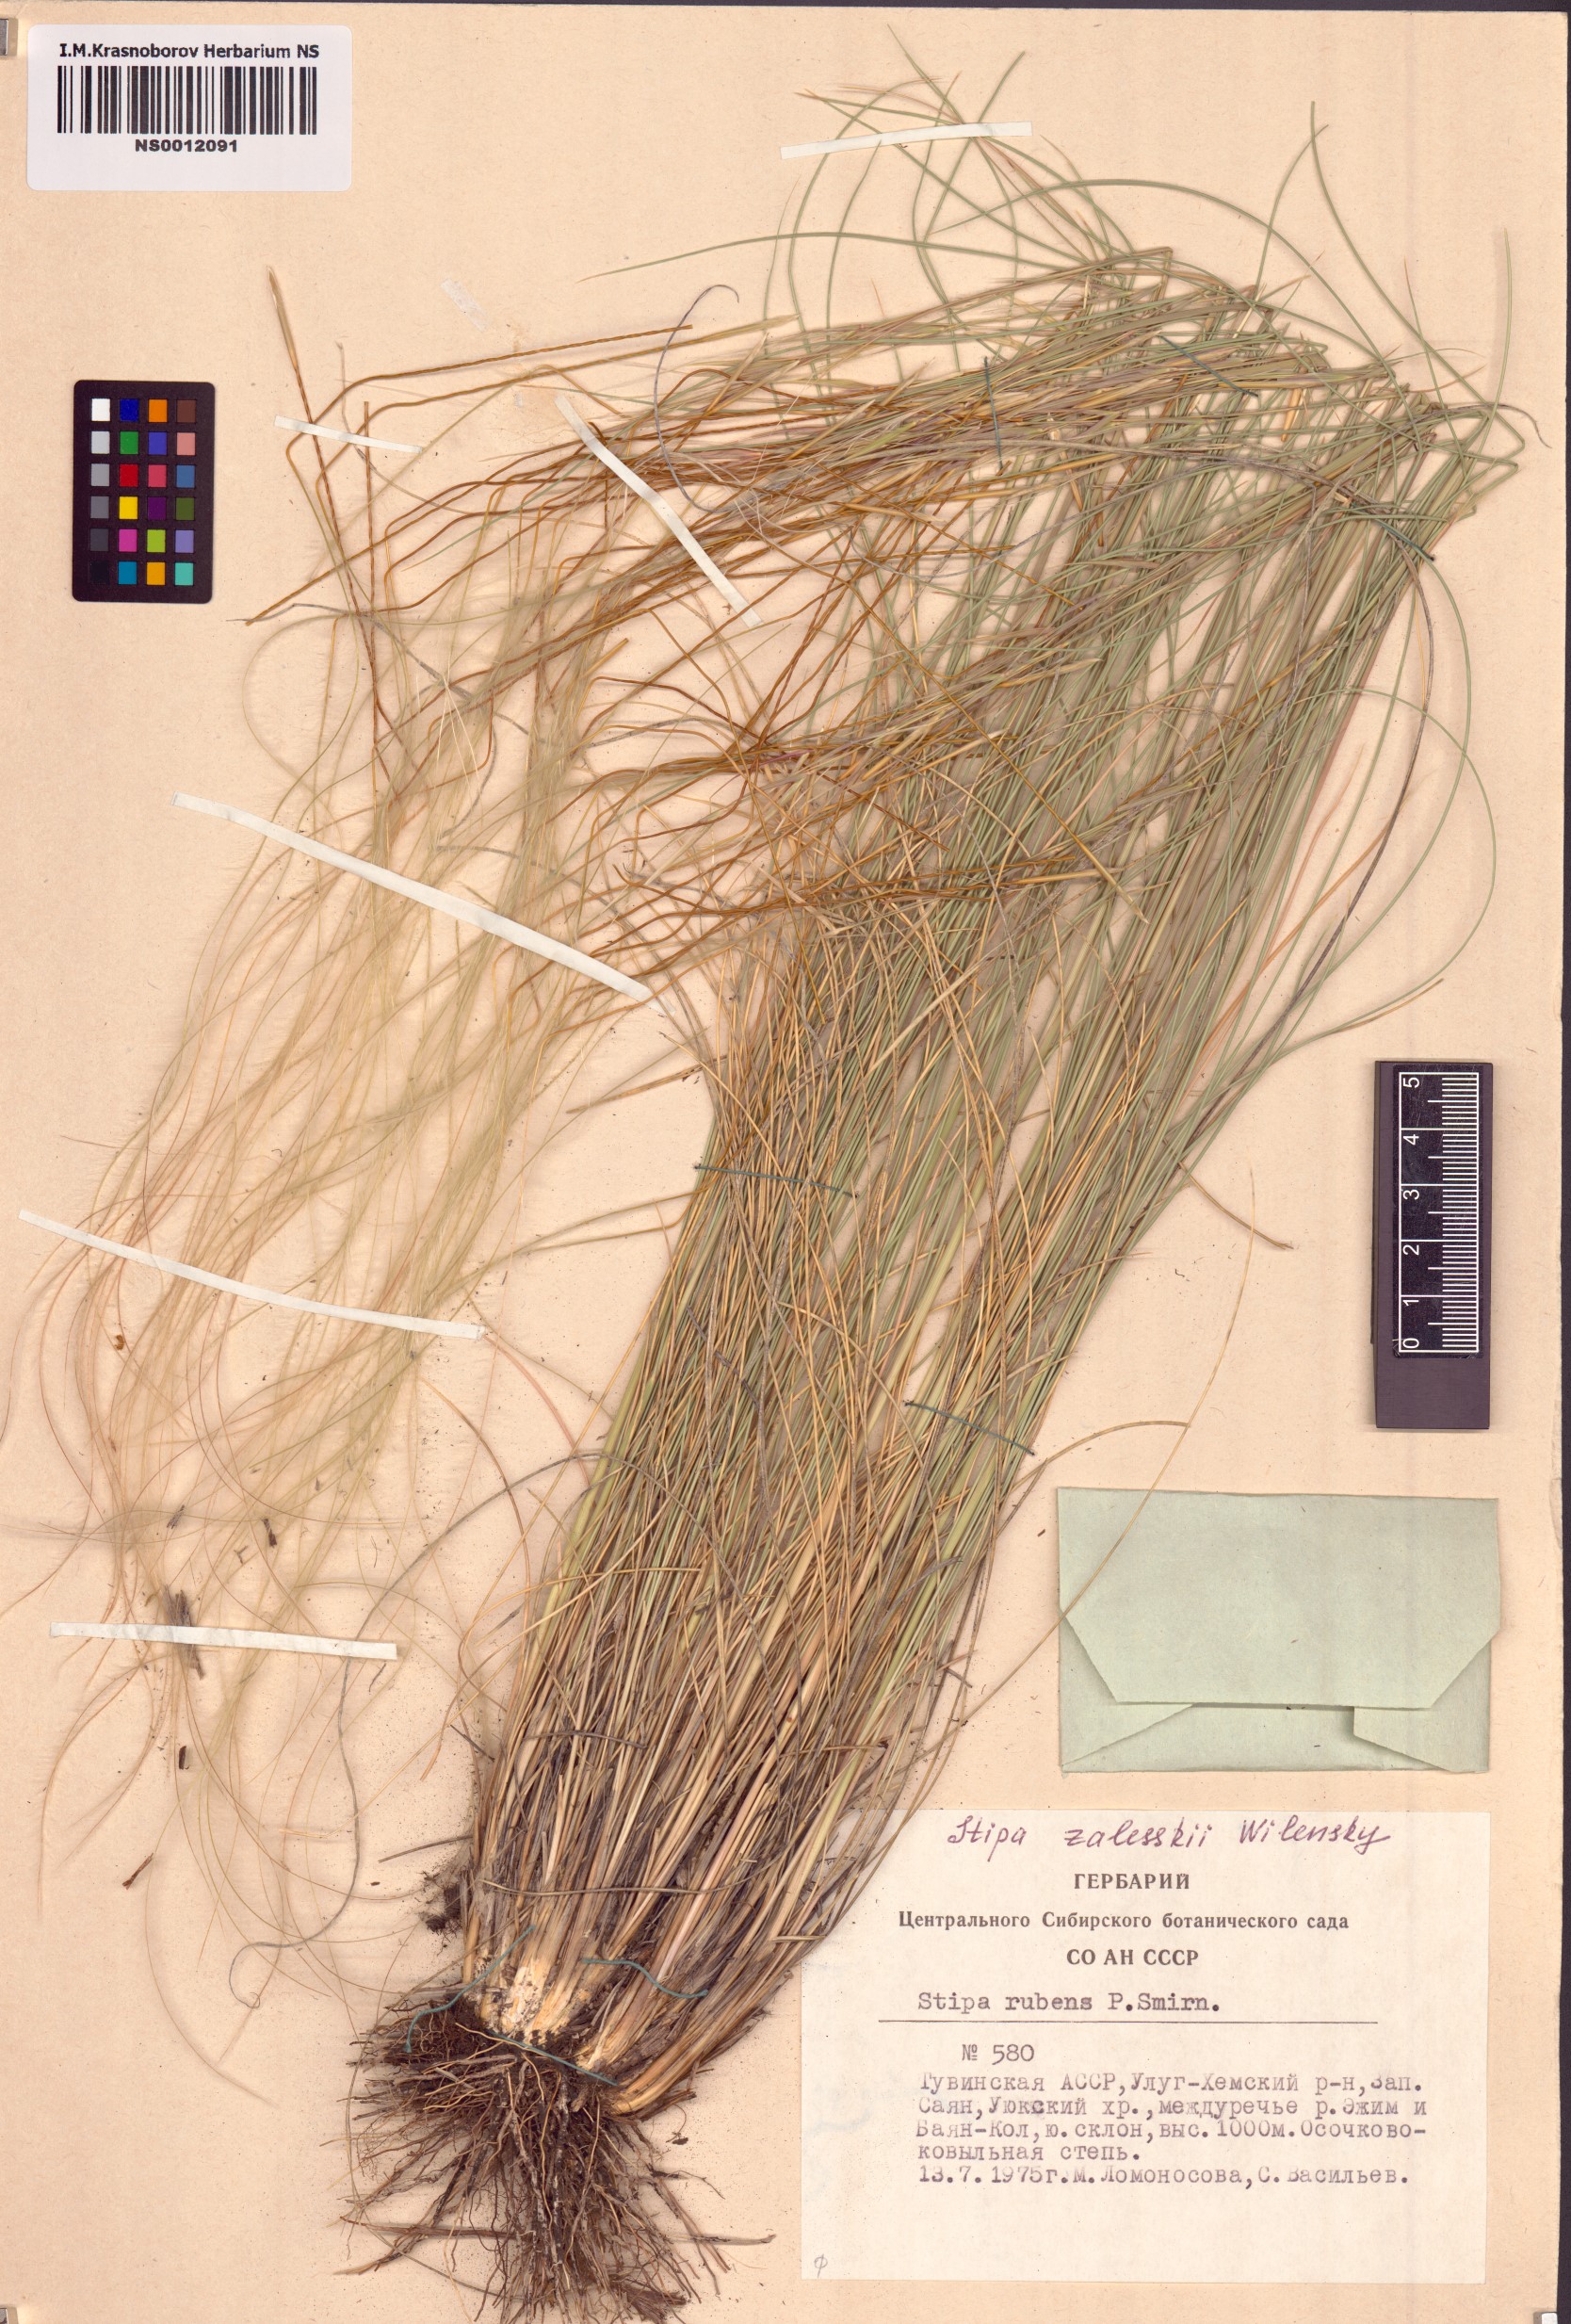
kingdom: Plantae
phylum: Tracheophyta
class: Liliopsida
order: Poales
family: Poaceae
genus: Stipa
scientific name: Stipa zalesskii
